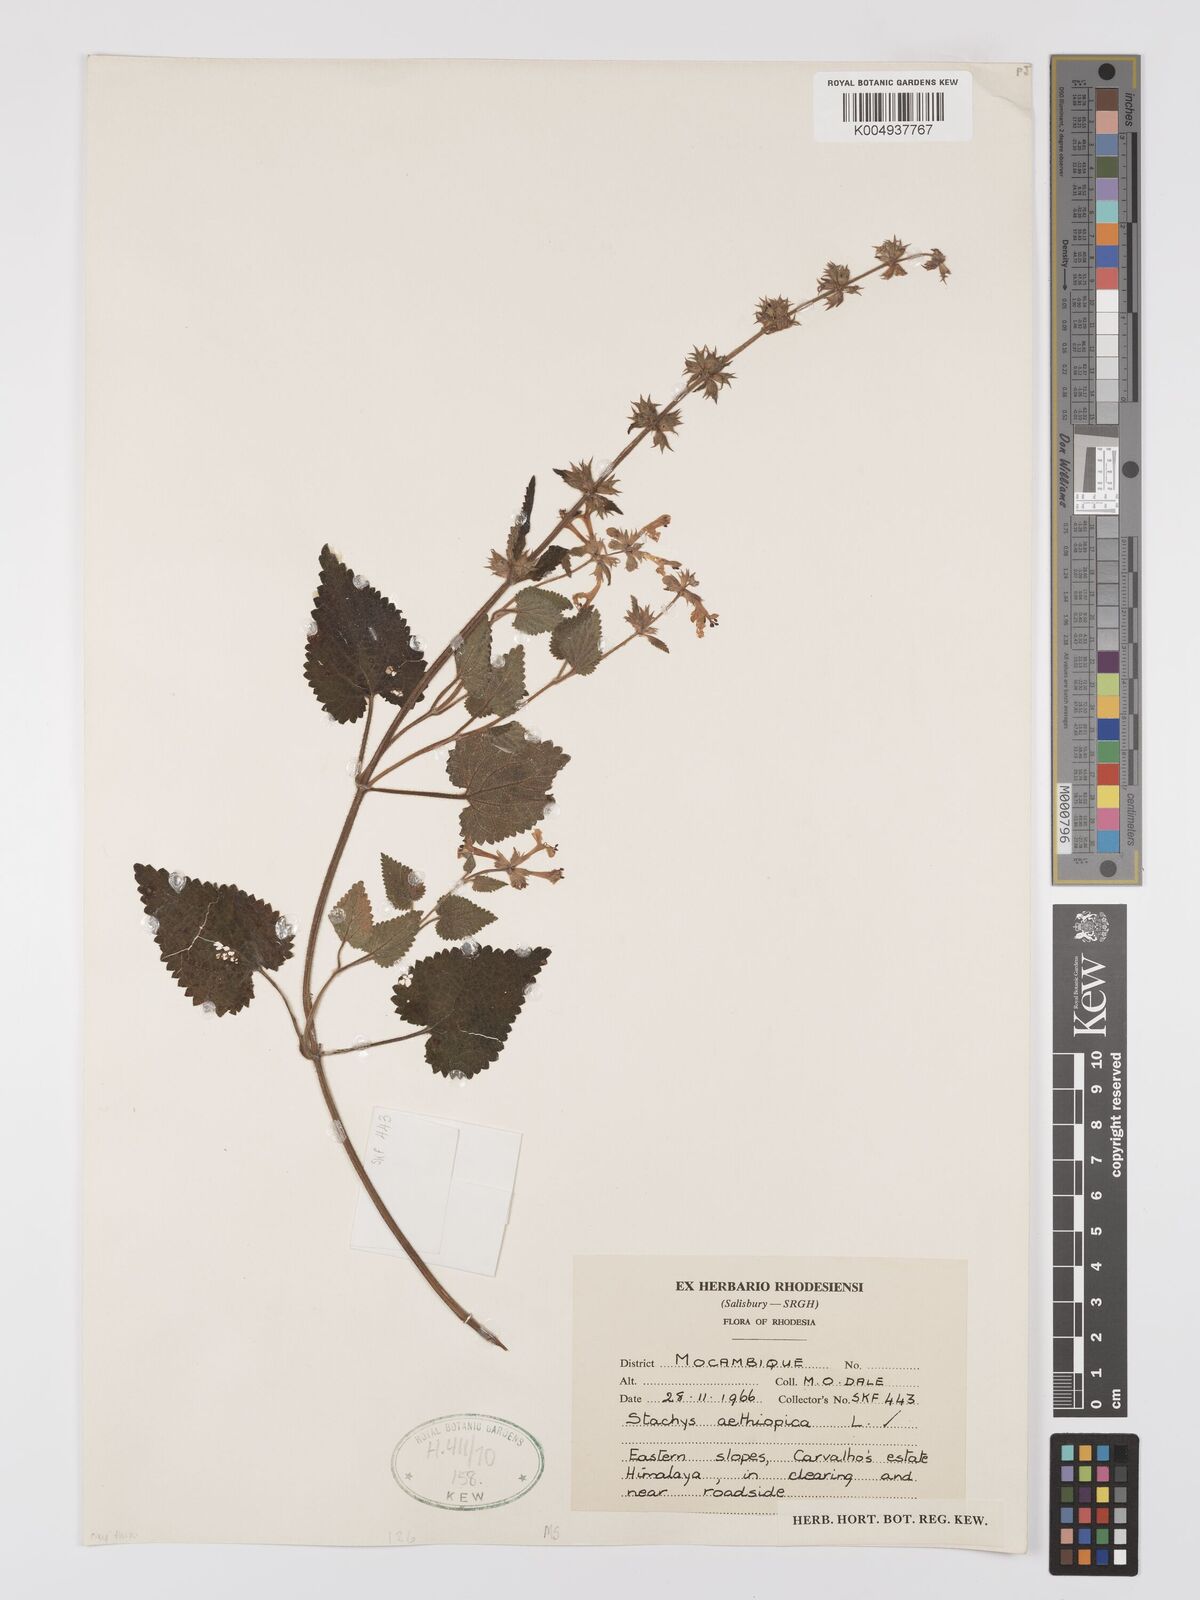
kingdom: Plantae
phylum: Tracheophyta
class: Magnoliopsida
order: Lamiales
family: Lamiaceae
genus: Stachys
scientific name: Stachys aethiopica
